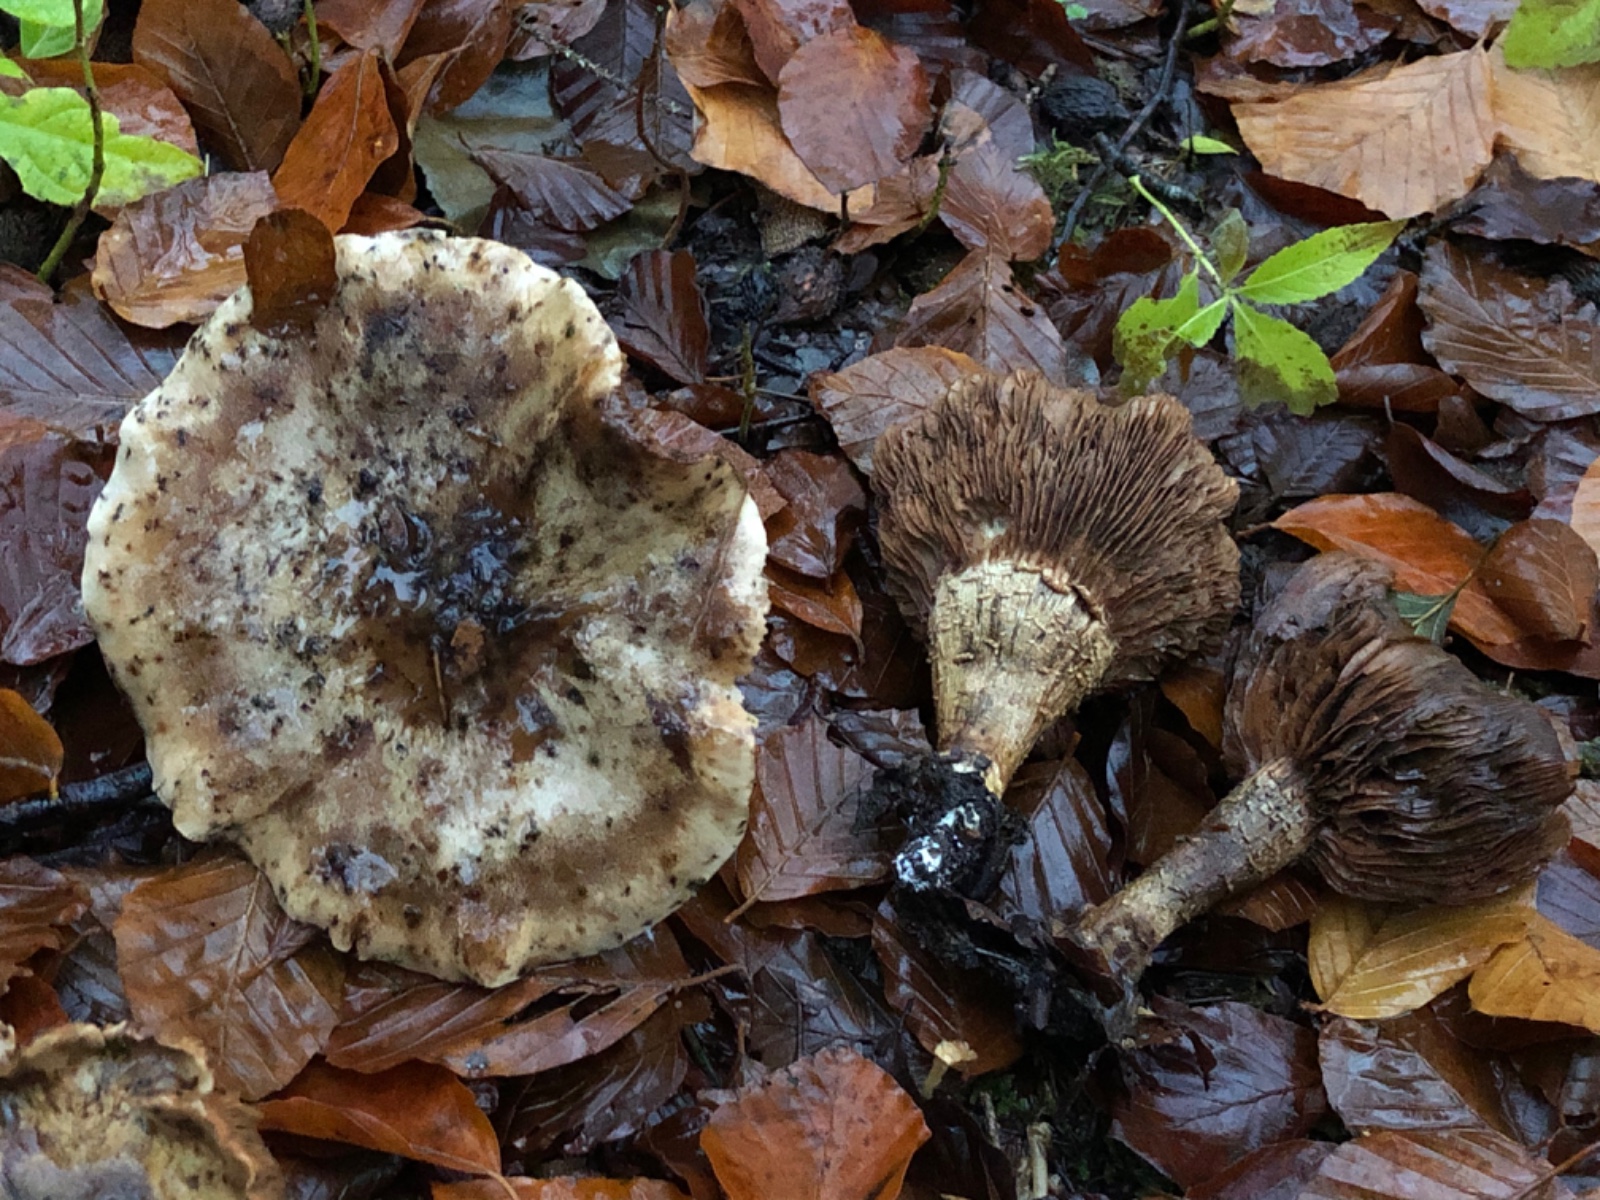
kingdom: Fungi
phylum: Basidiomycota
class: Agaricomycetes
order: Agaricales
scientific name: Agaricales
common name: champignonordenen
